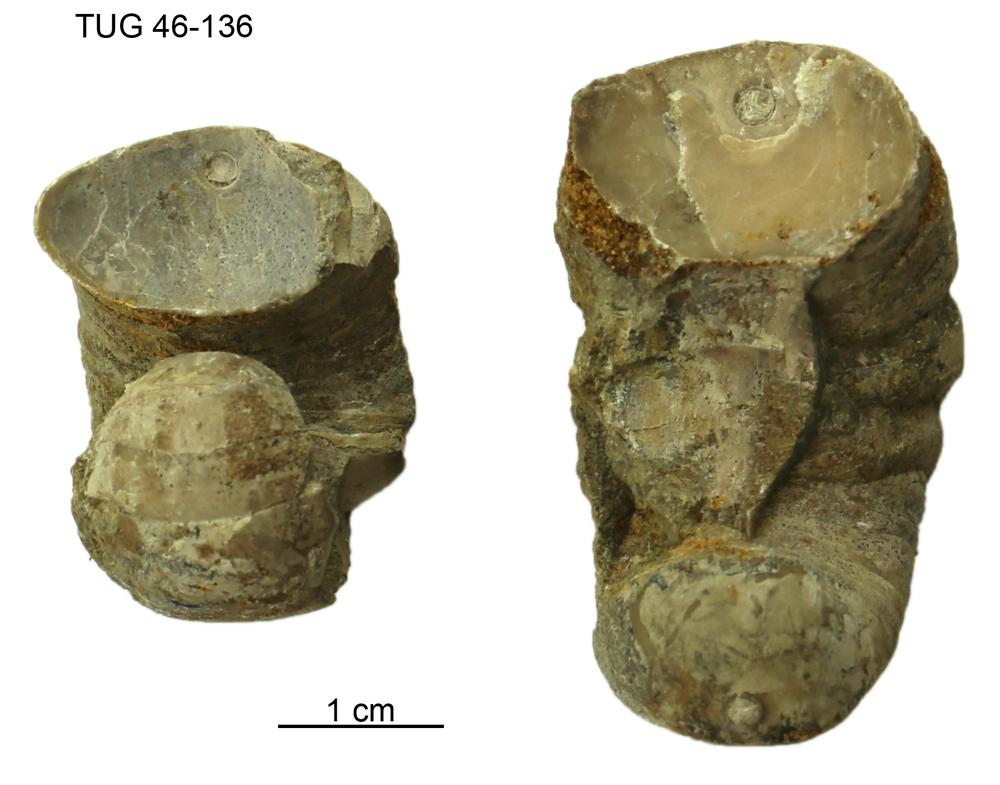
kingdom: Animalia
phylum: Mollusca
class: Cephalopoda
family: Estonioceratidae
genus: Estonioceras
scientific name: Estonioceras
